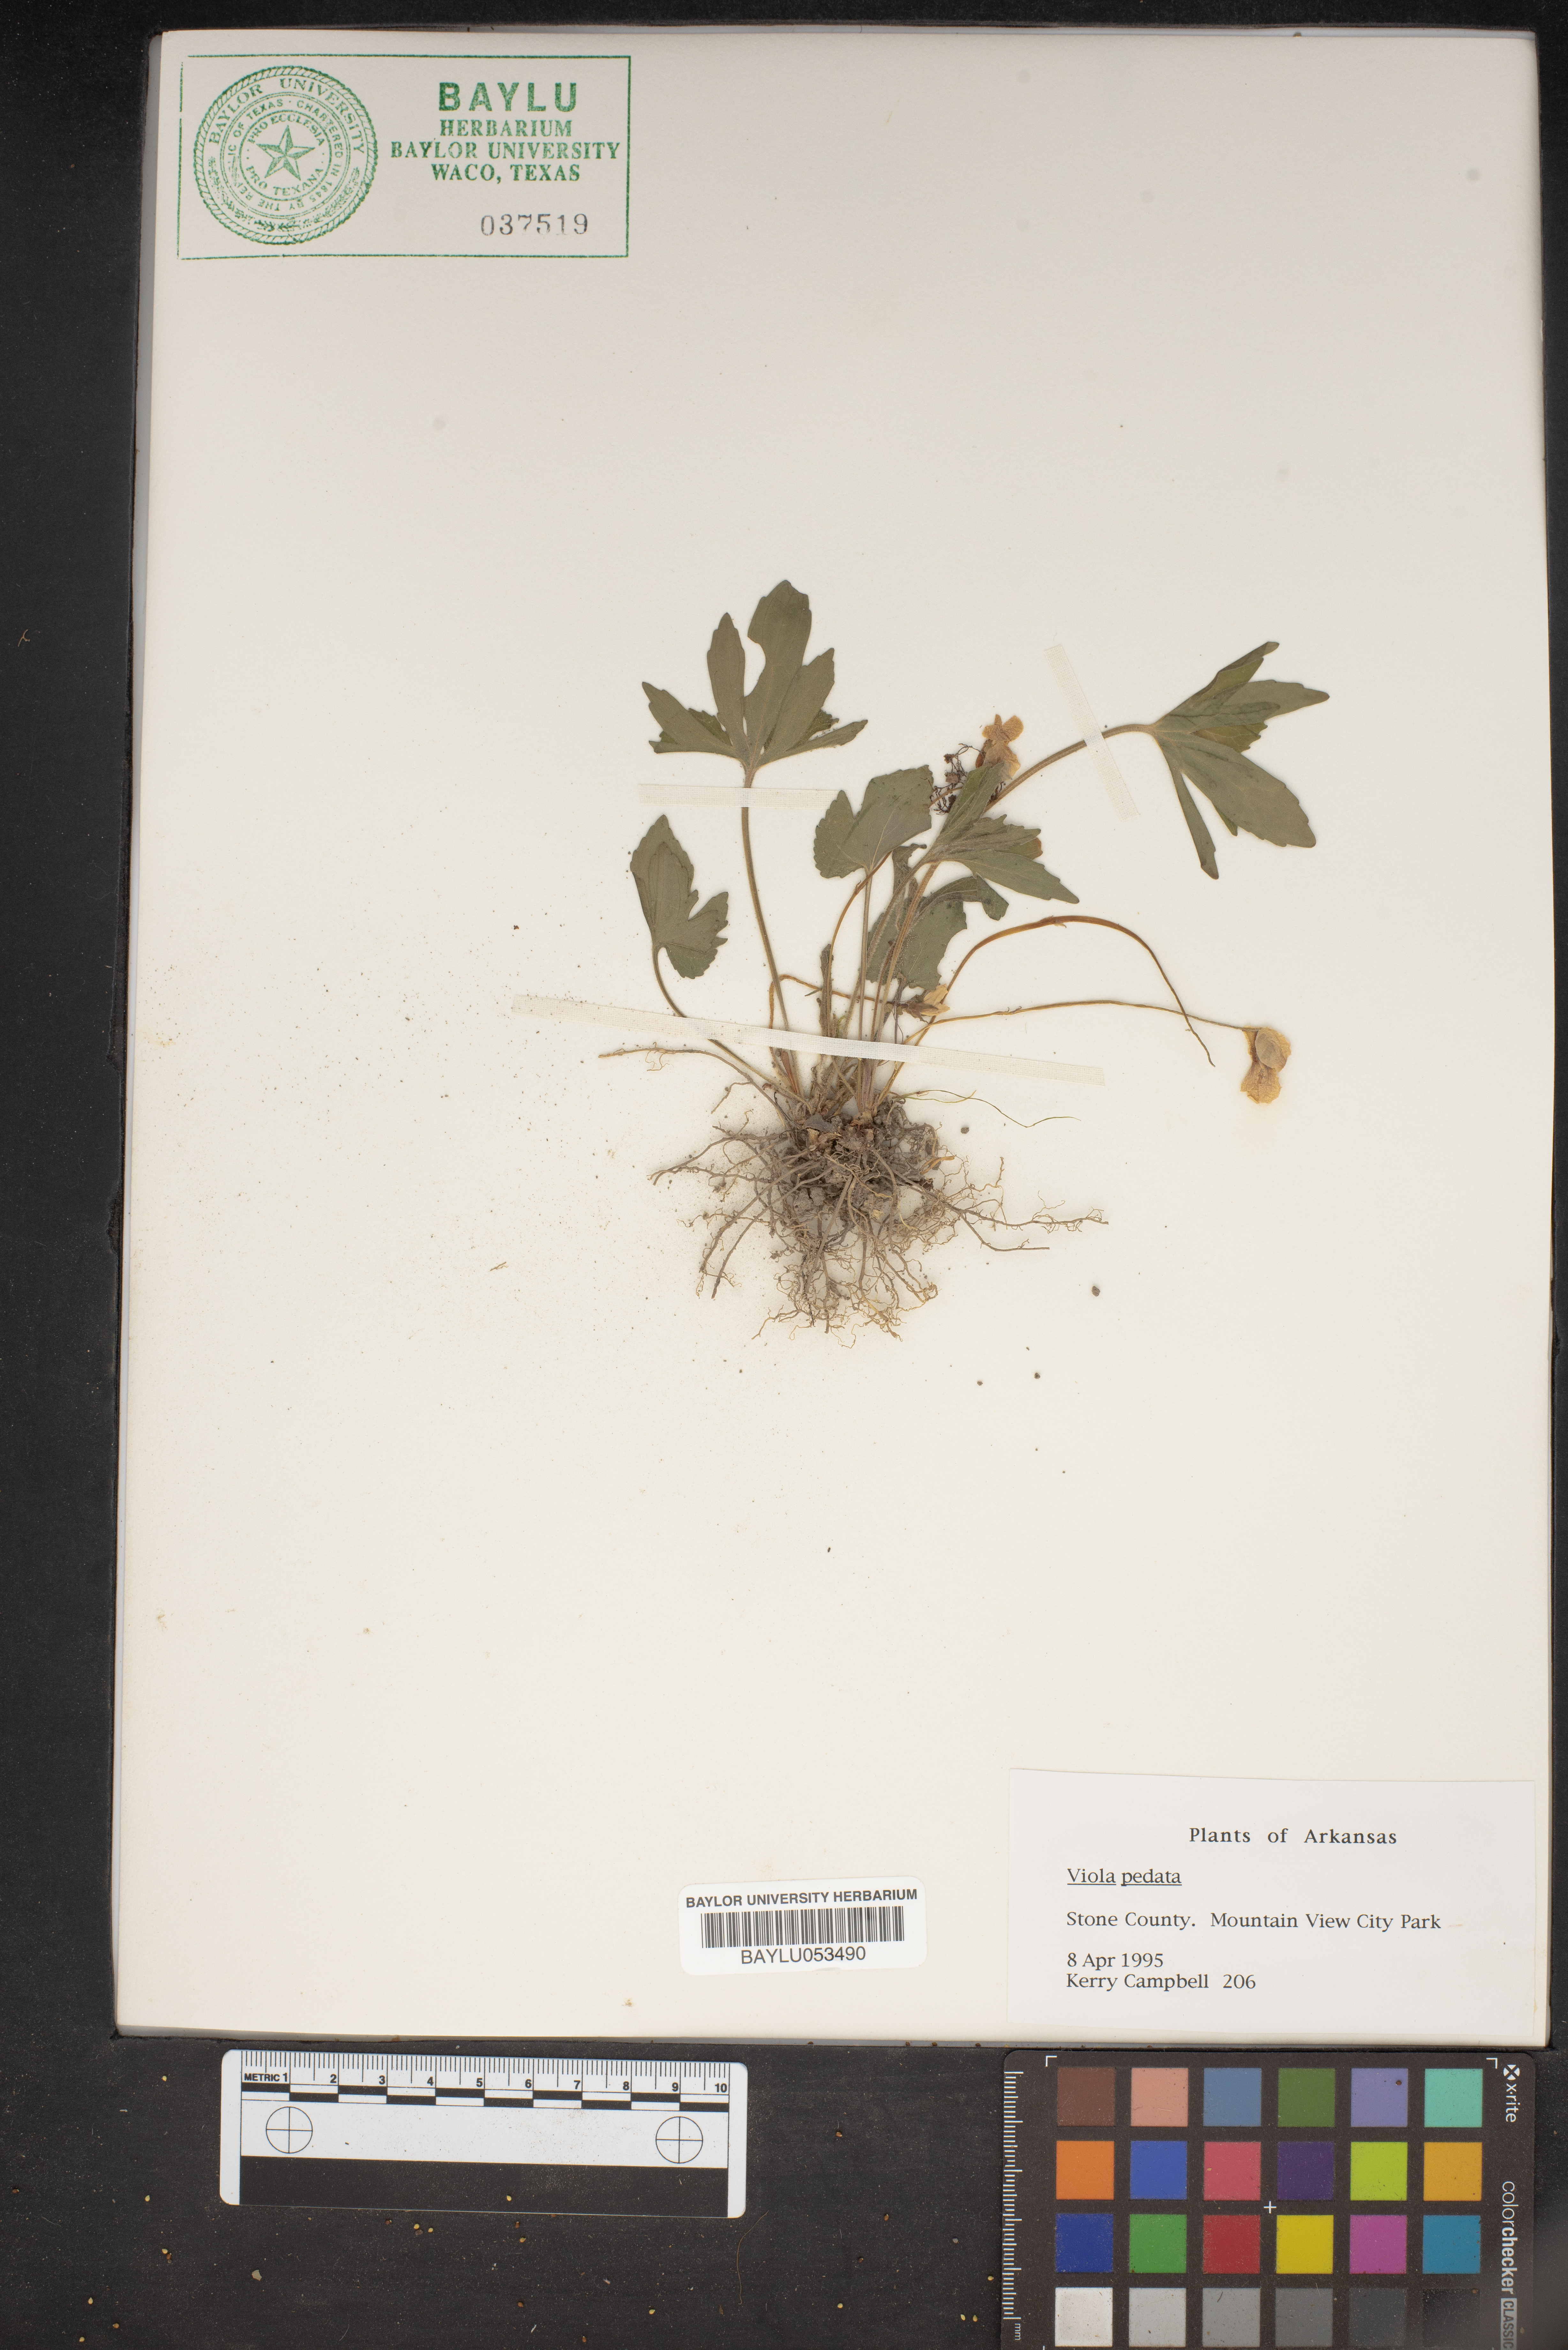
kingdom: Plantae
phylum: Tracheophyta
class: Magnoliopsida
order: Malpighiales
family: Violaceae
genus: Viola
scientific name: Viola pedata
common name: Pansy violet
